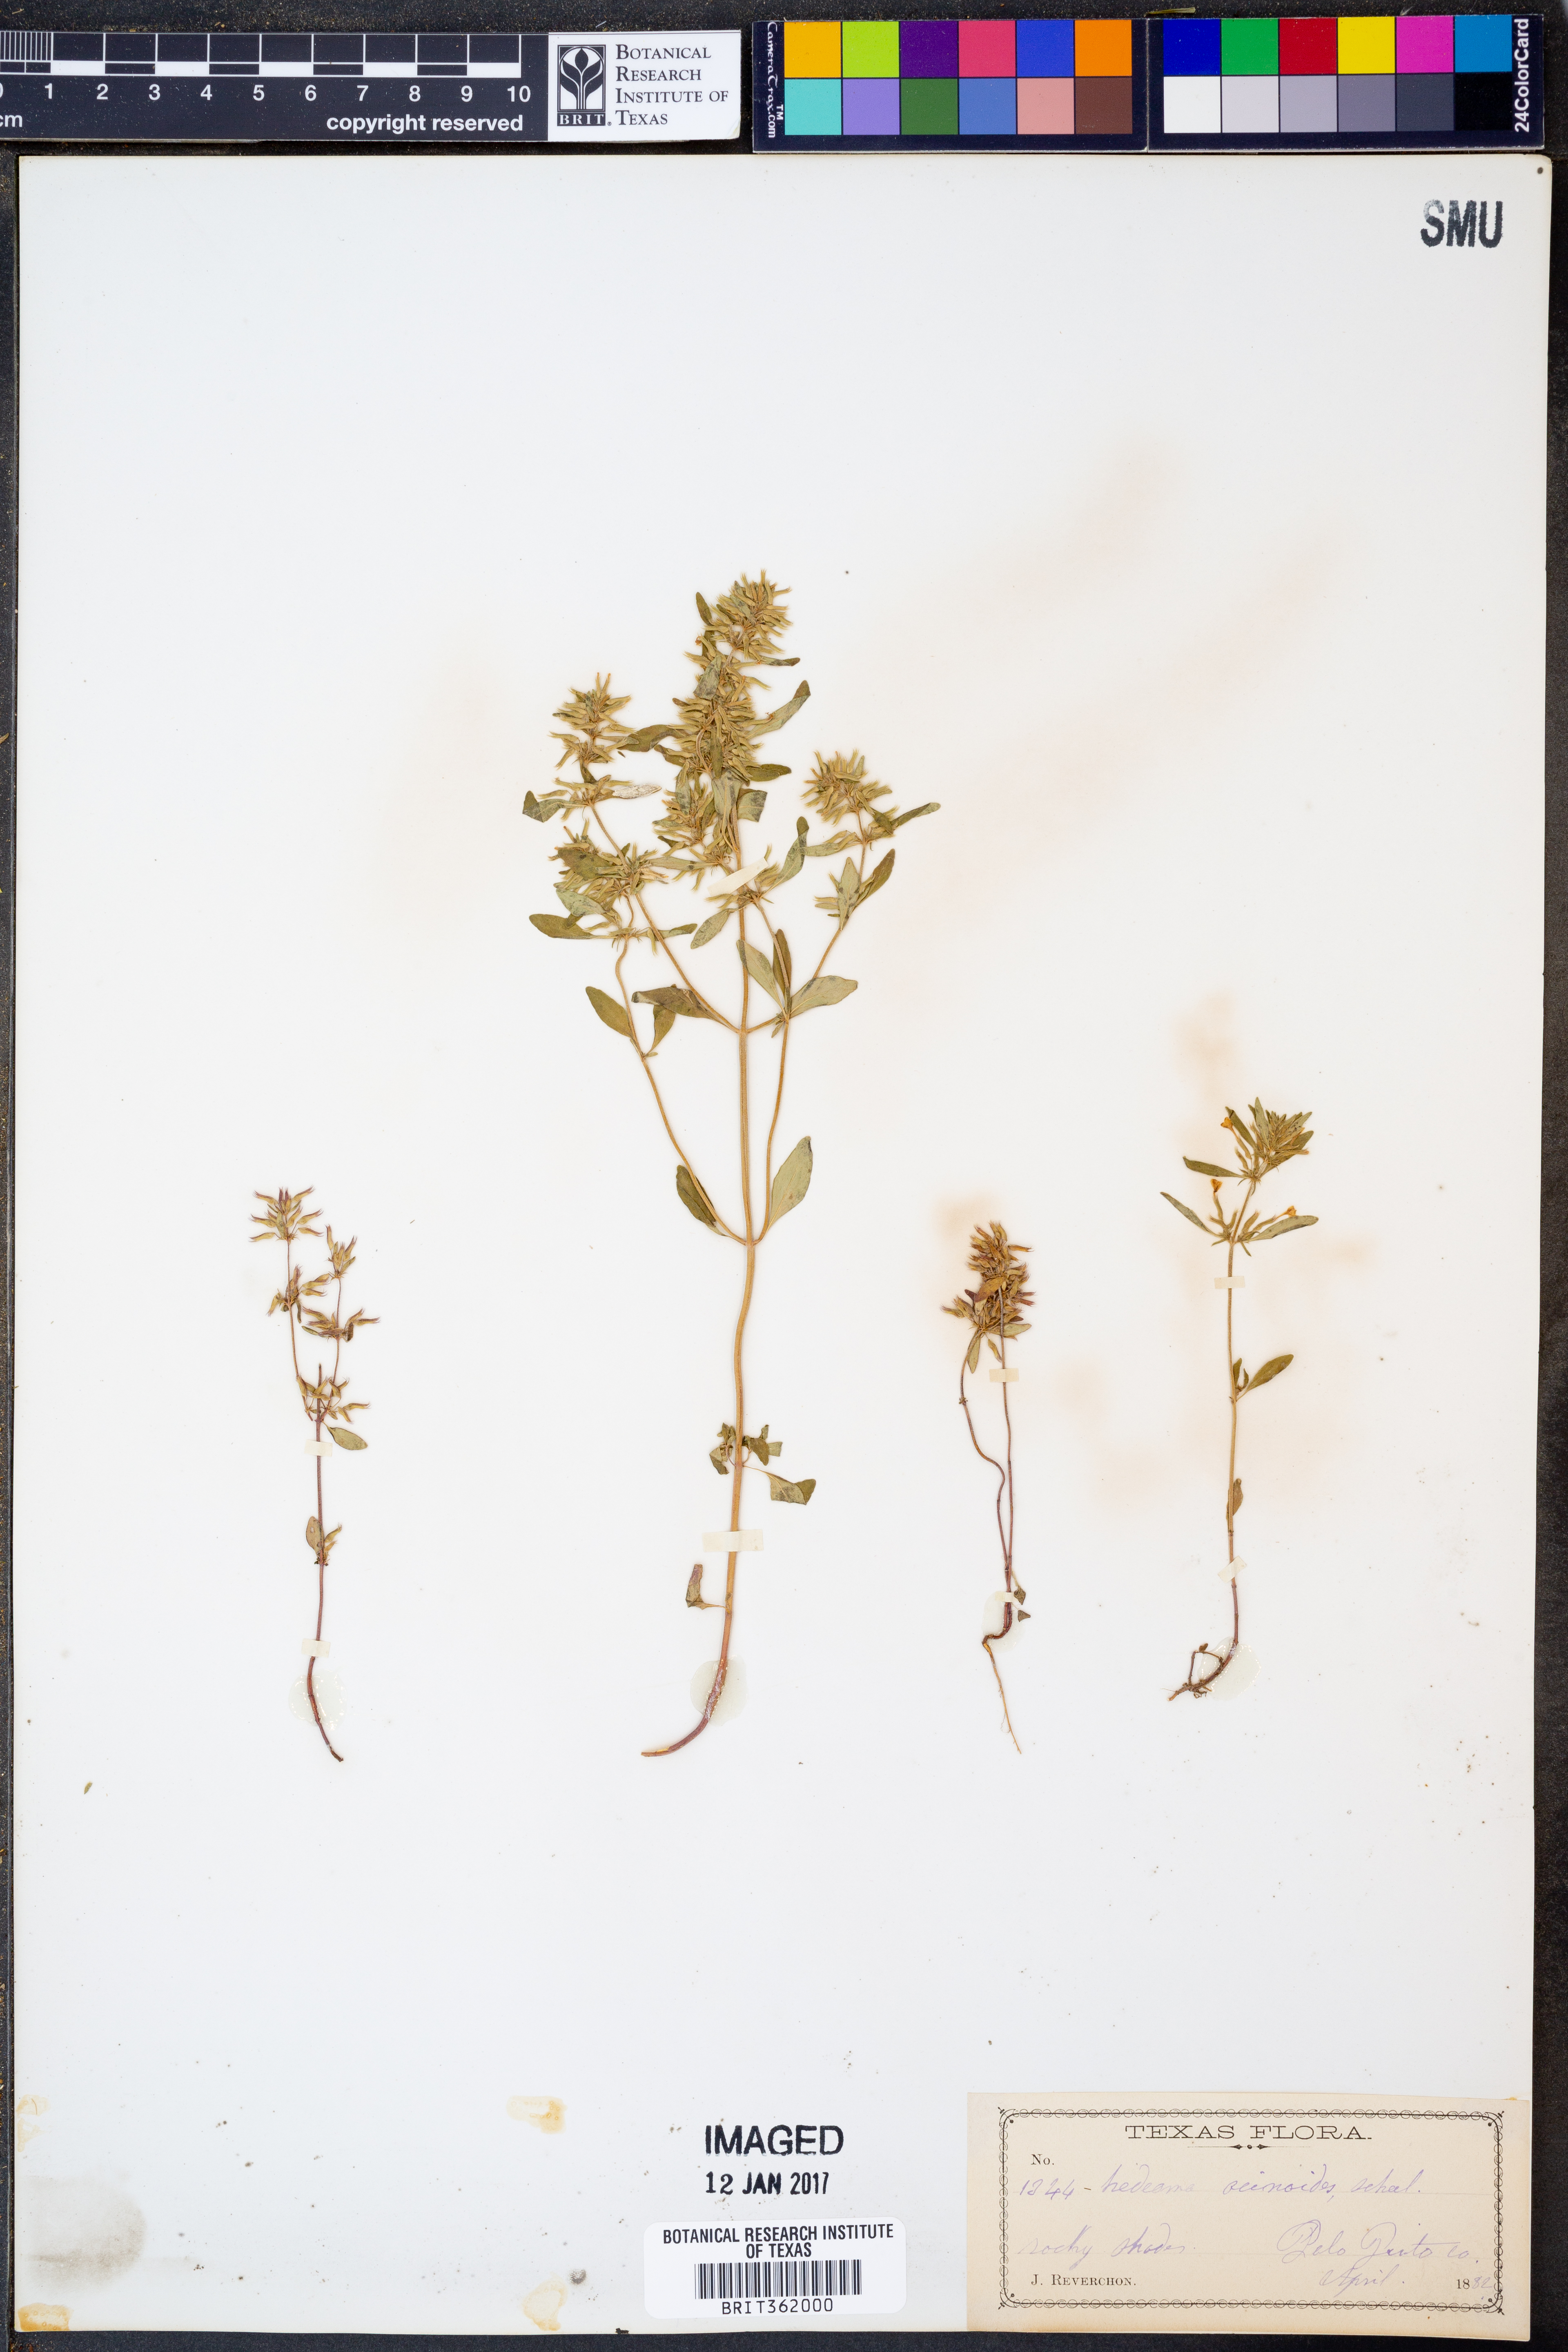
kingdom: Plantae
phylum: Tracheophyta
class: Magnoliopsida
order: Lamiales
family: Lamiaceae
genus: Hedeoma
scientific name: Hedeoma acinoides
